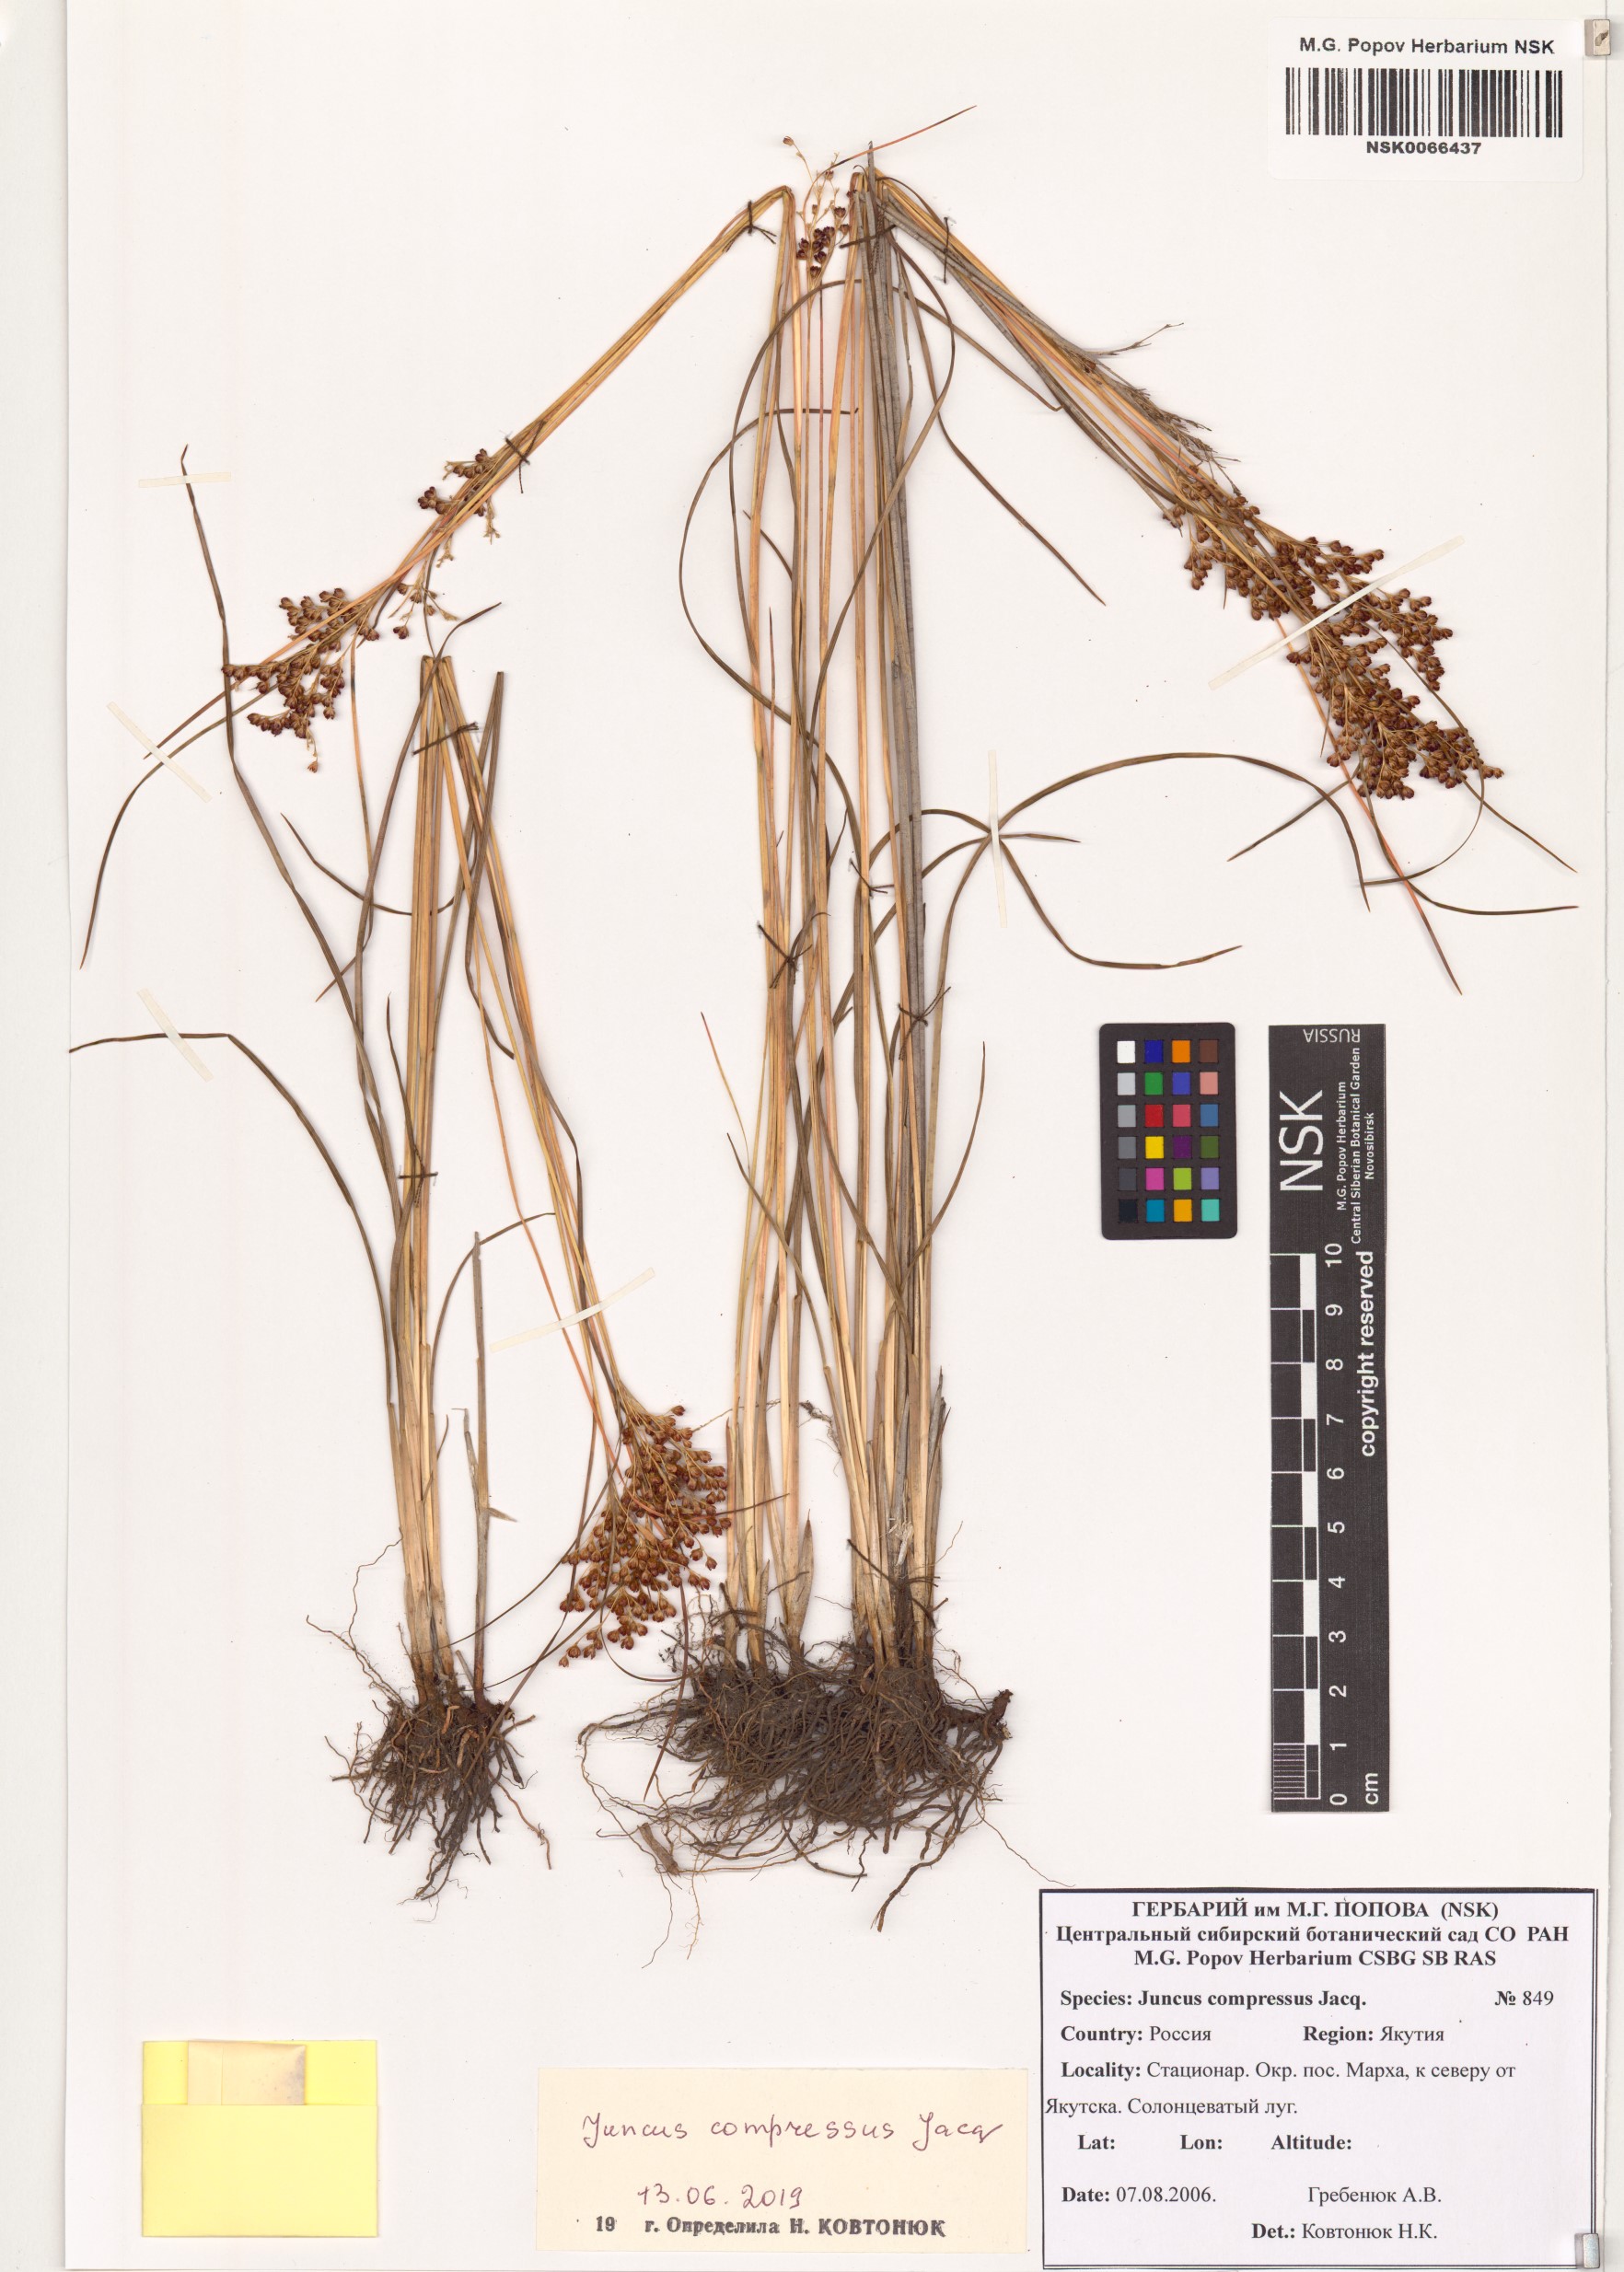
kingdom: Plantae
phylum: Tracheophyta
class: Liliopsida
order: Poales
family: Juncaceae
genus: Juncus
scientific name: Juncus compressus
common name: Round-fruited rush
